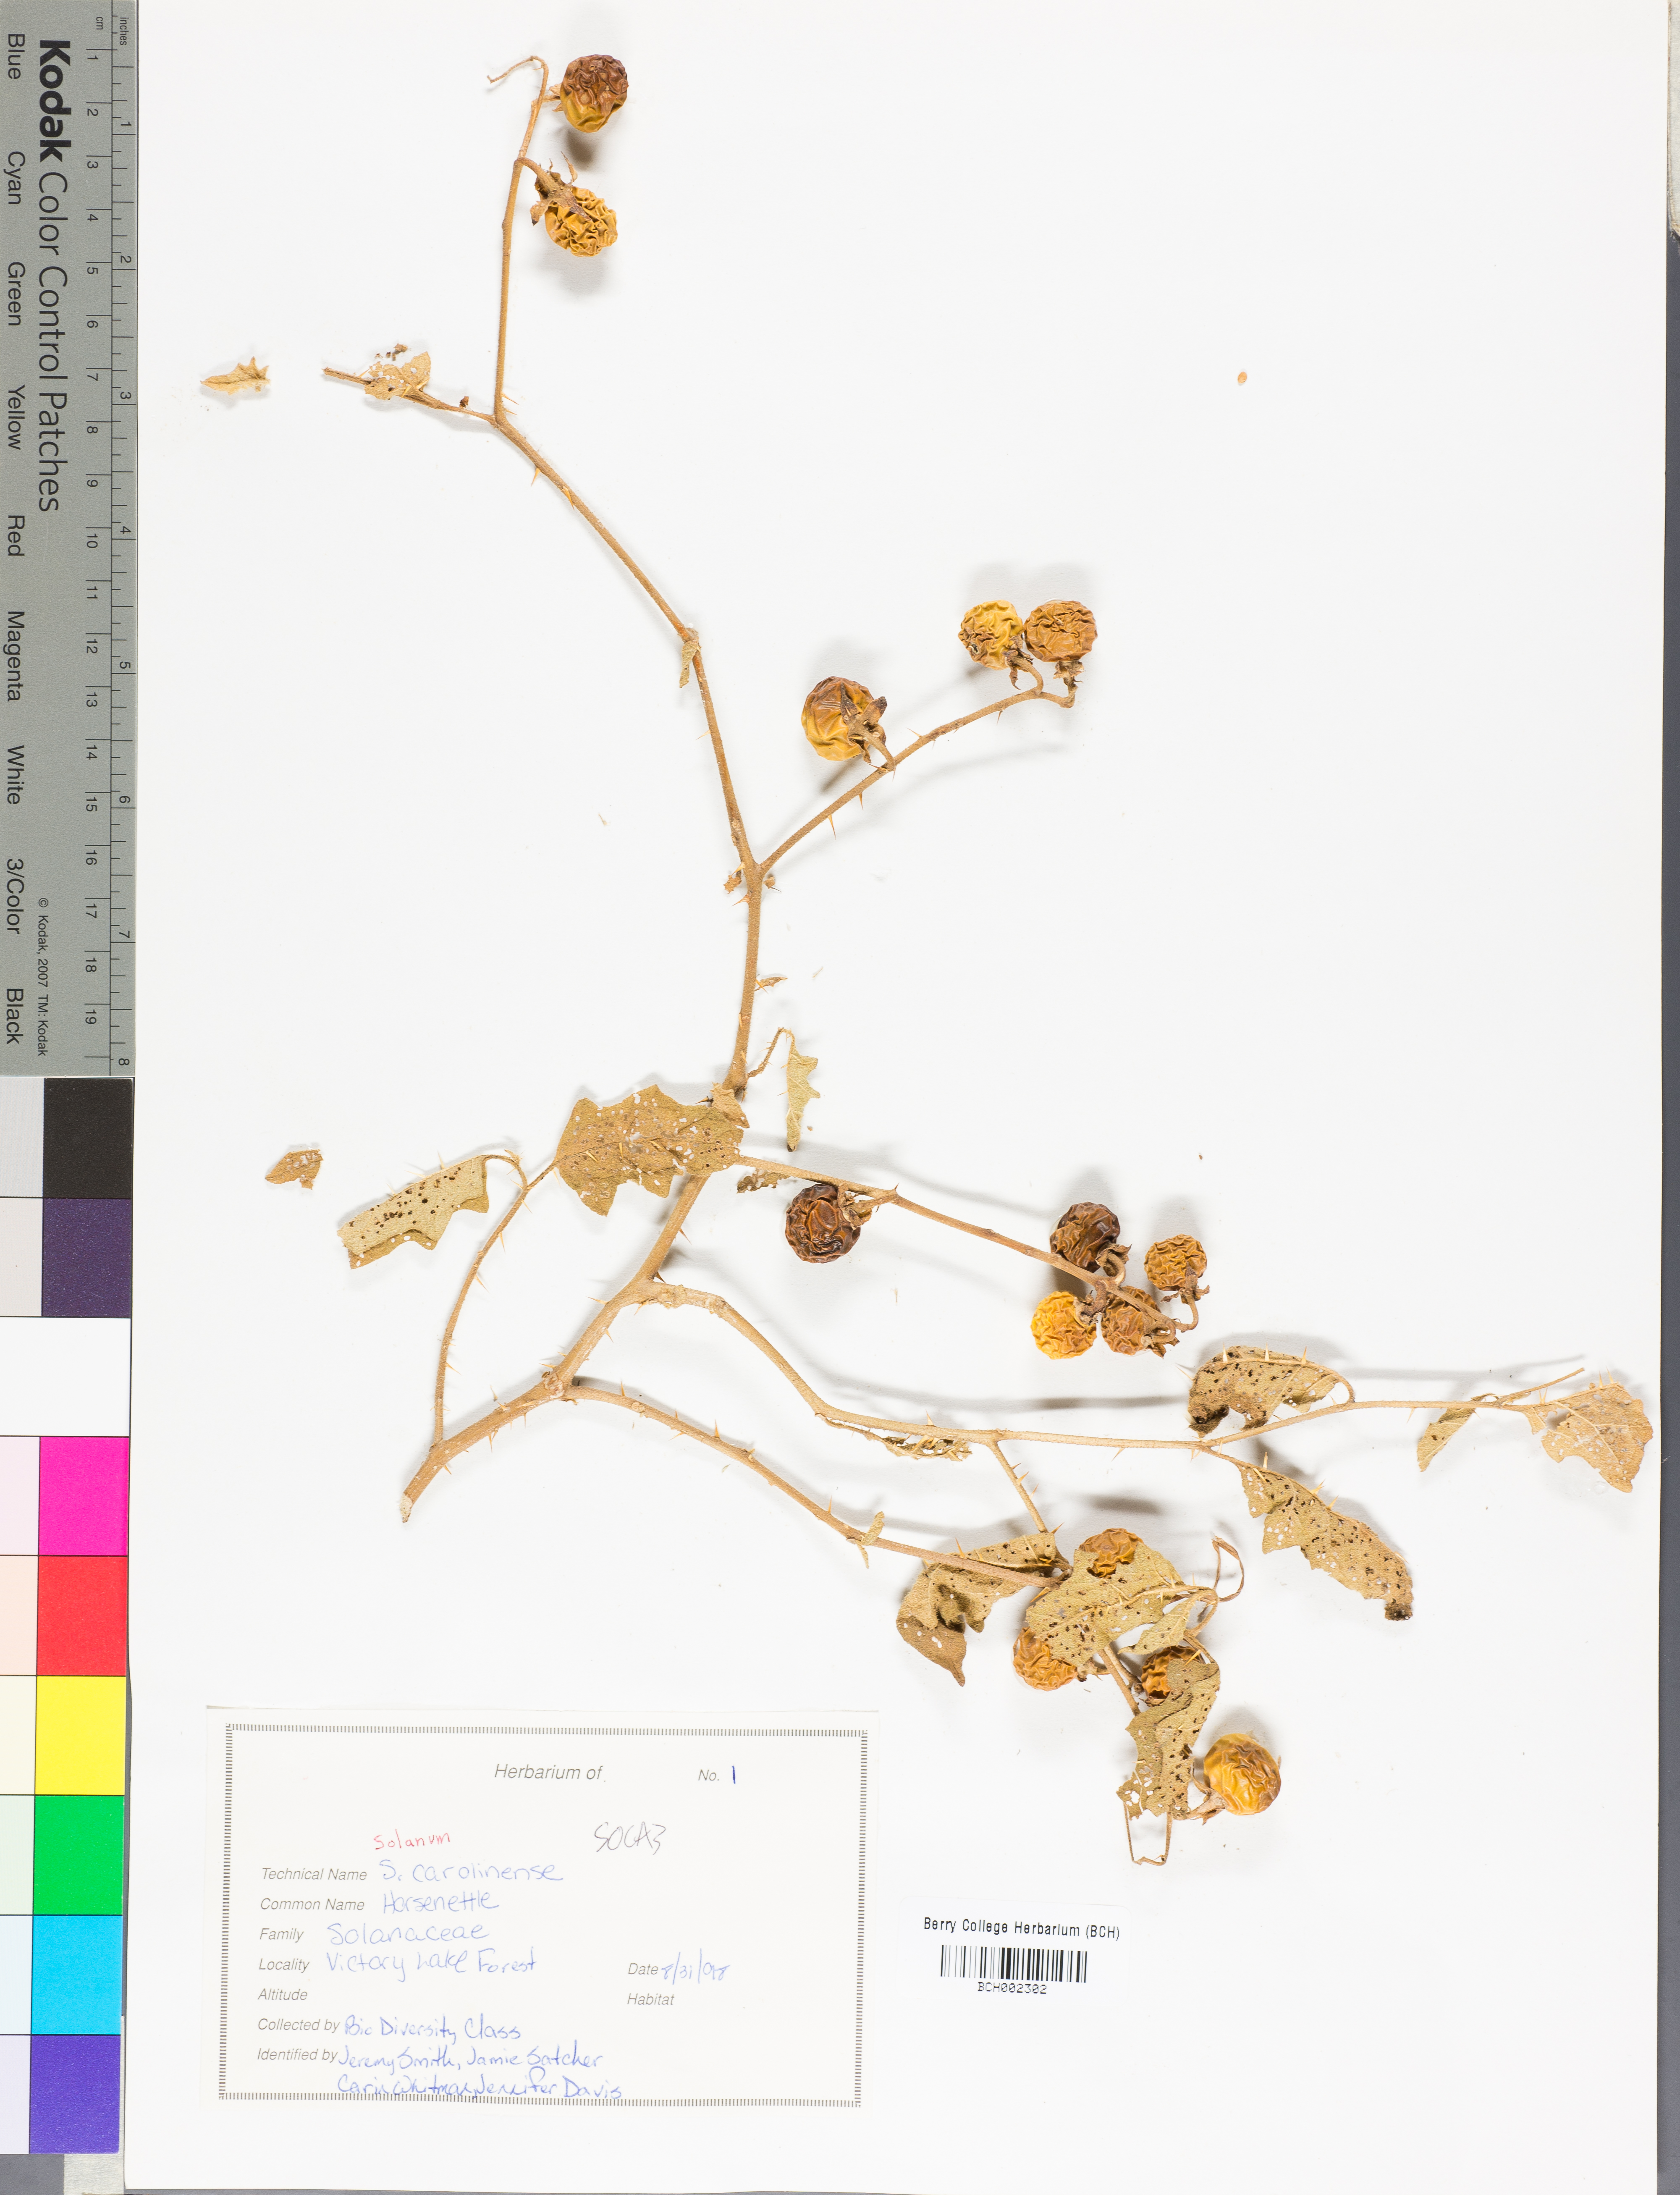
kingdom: Plantae
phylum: Tracheophyta
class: Magnoliopsida
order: Solanales
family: Solanaceae
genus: Solanum
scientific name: Solanum carolinense
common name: Horse-nettle
